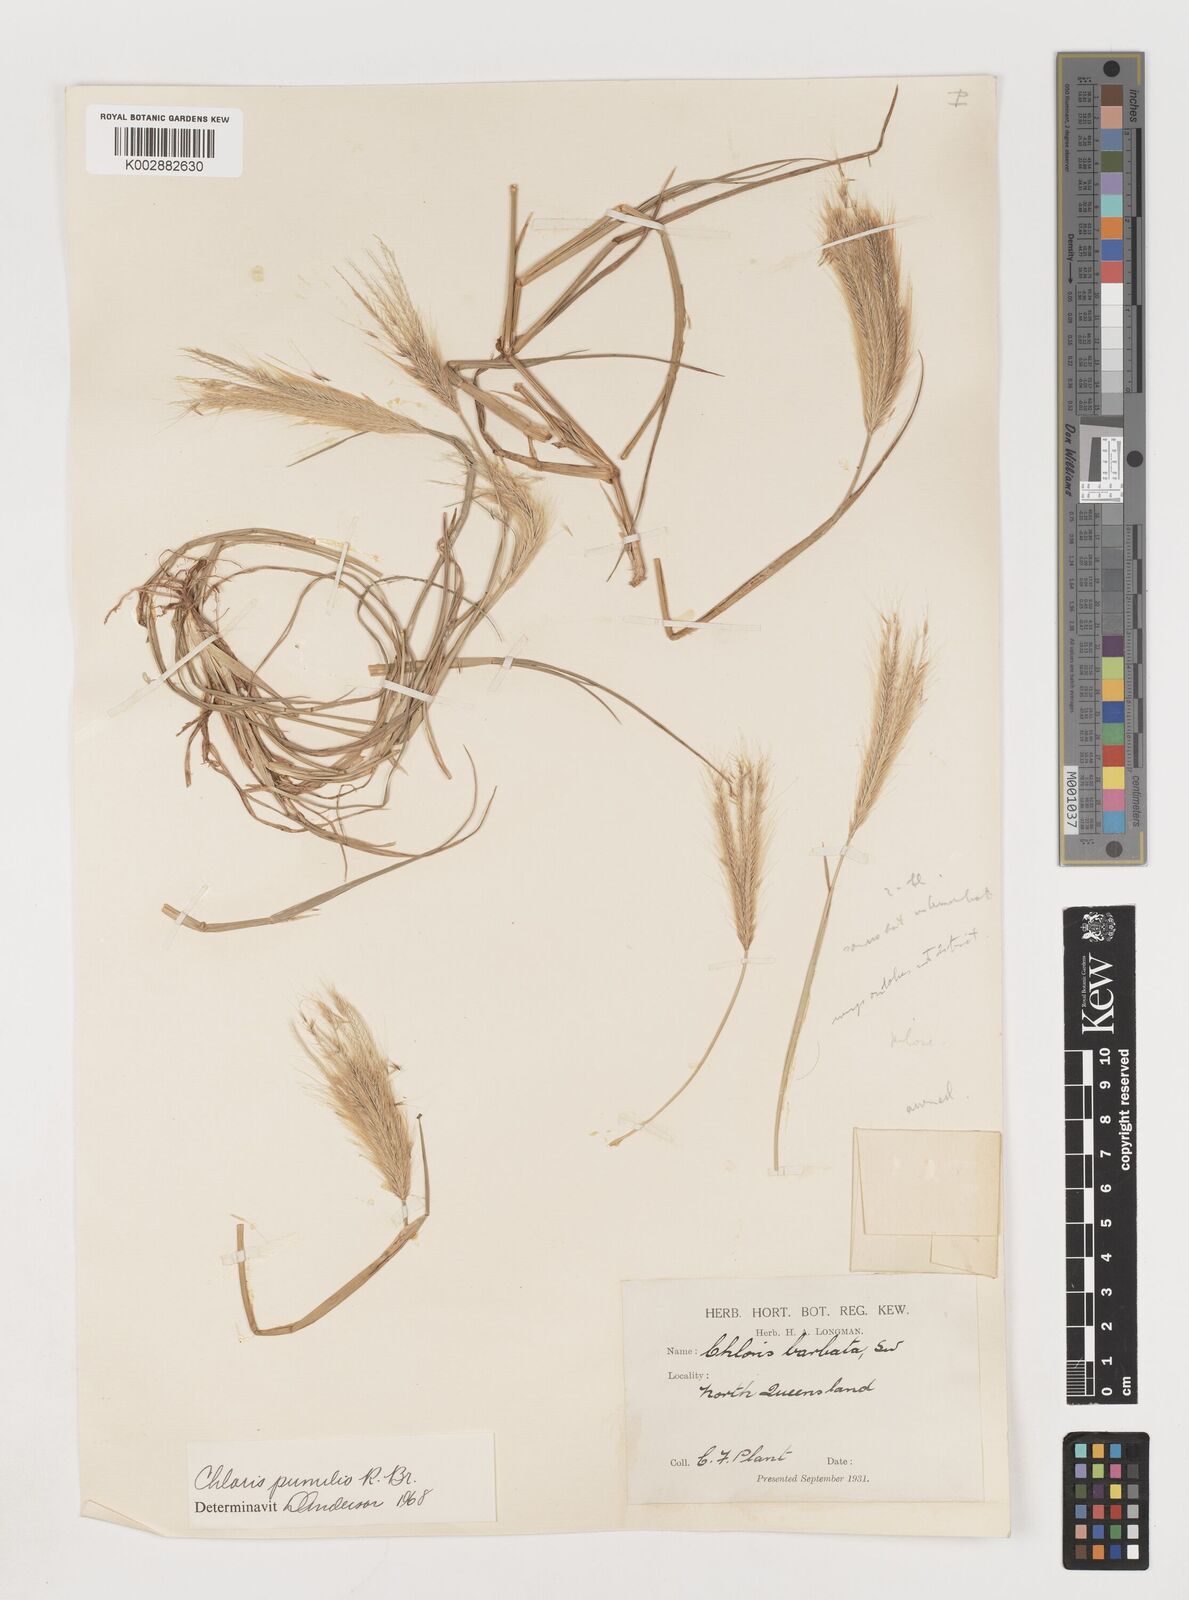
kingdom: Plantae
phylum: Tracheophyta
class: Liliopsida
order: Poales
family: Poaceae
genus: Chloris
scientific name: Chloris pumilio
